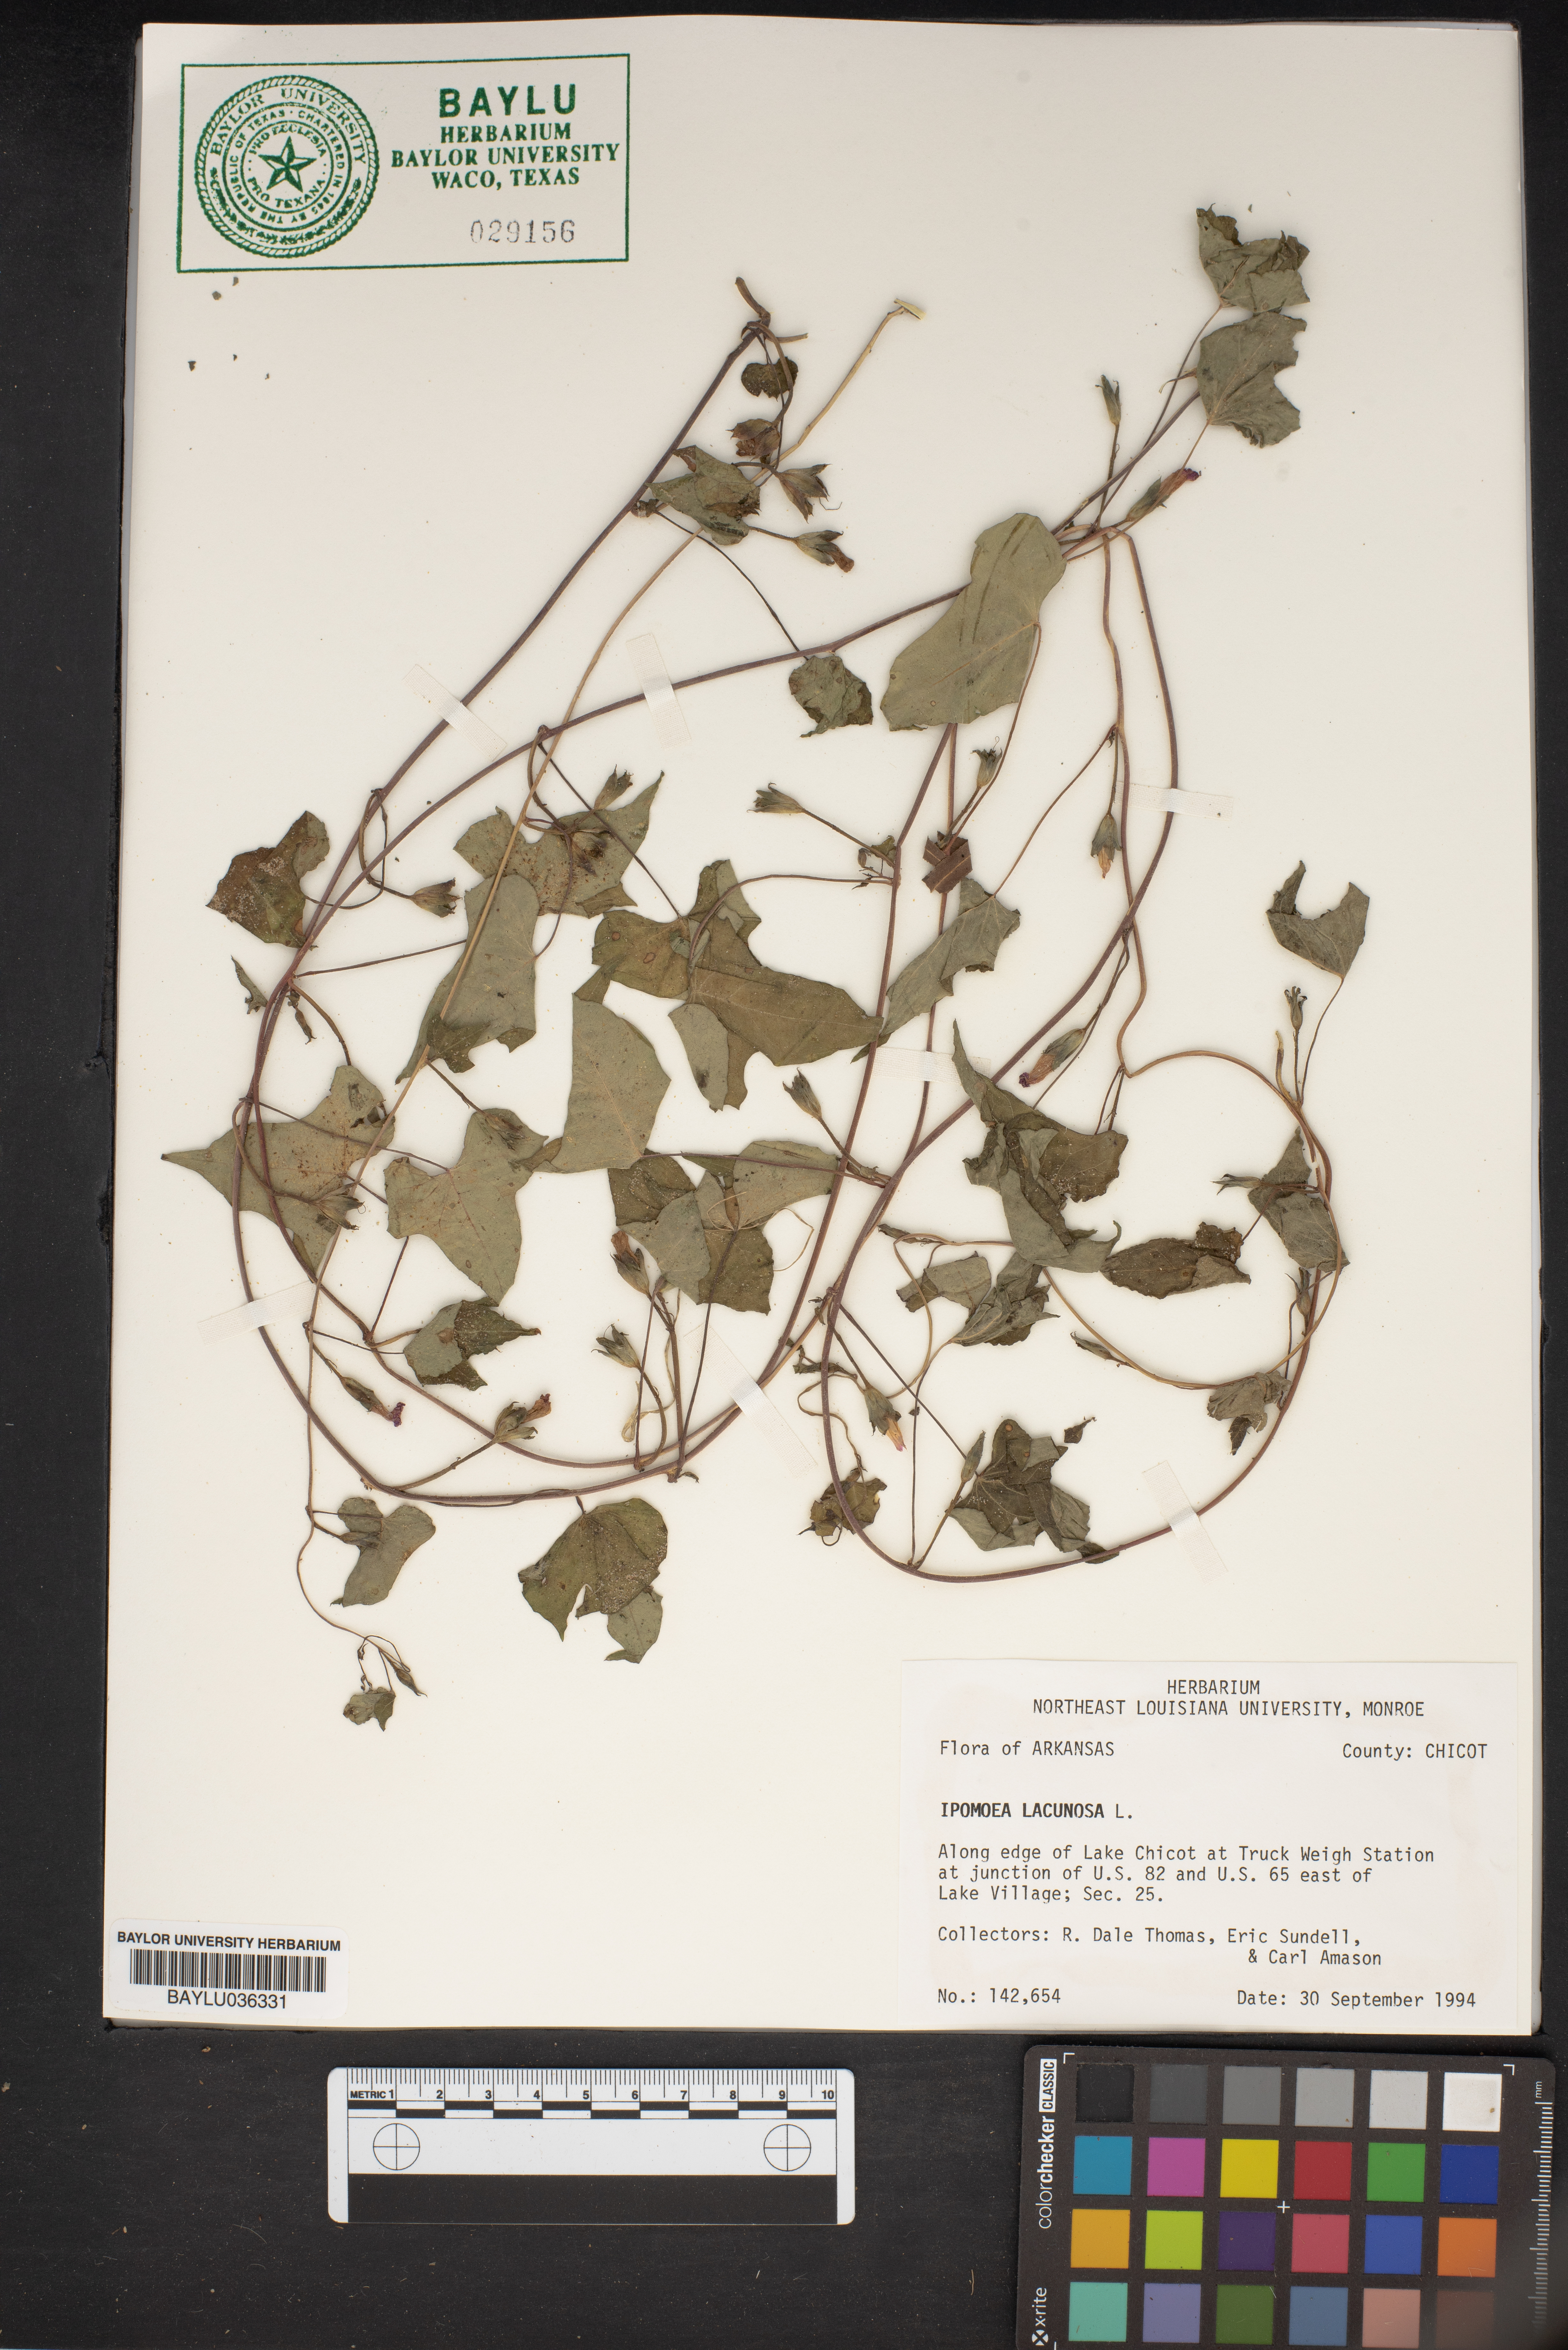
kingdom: Plantae
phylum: Tracheophyta
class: Magnoliopsida
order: Solanales
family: Convolvulaceae
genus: Ipomoea
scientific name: Ipomoea lacunosa
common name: White morning-glory
